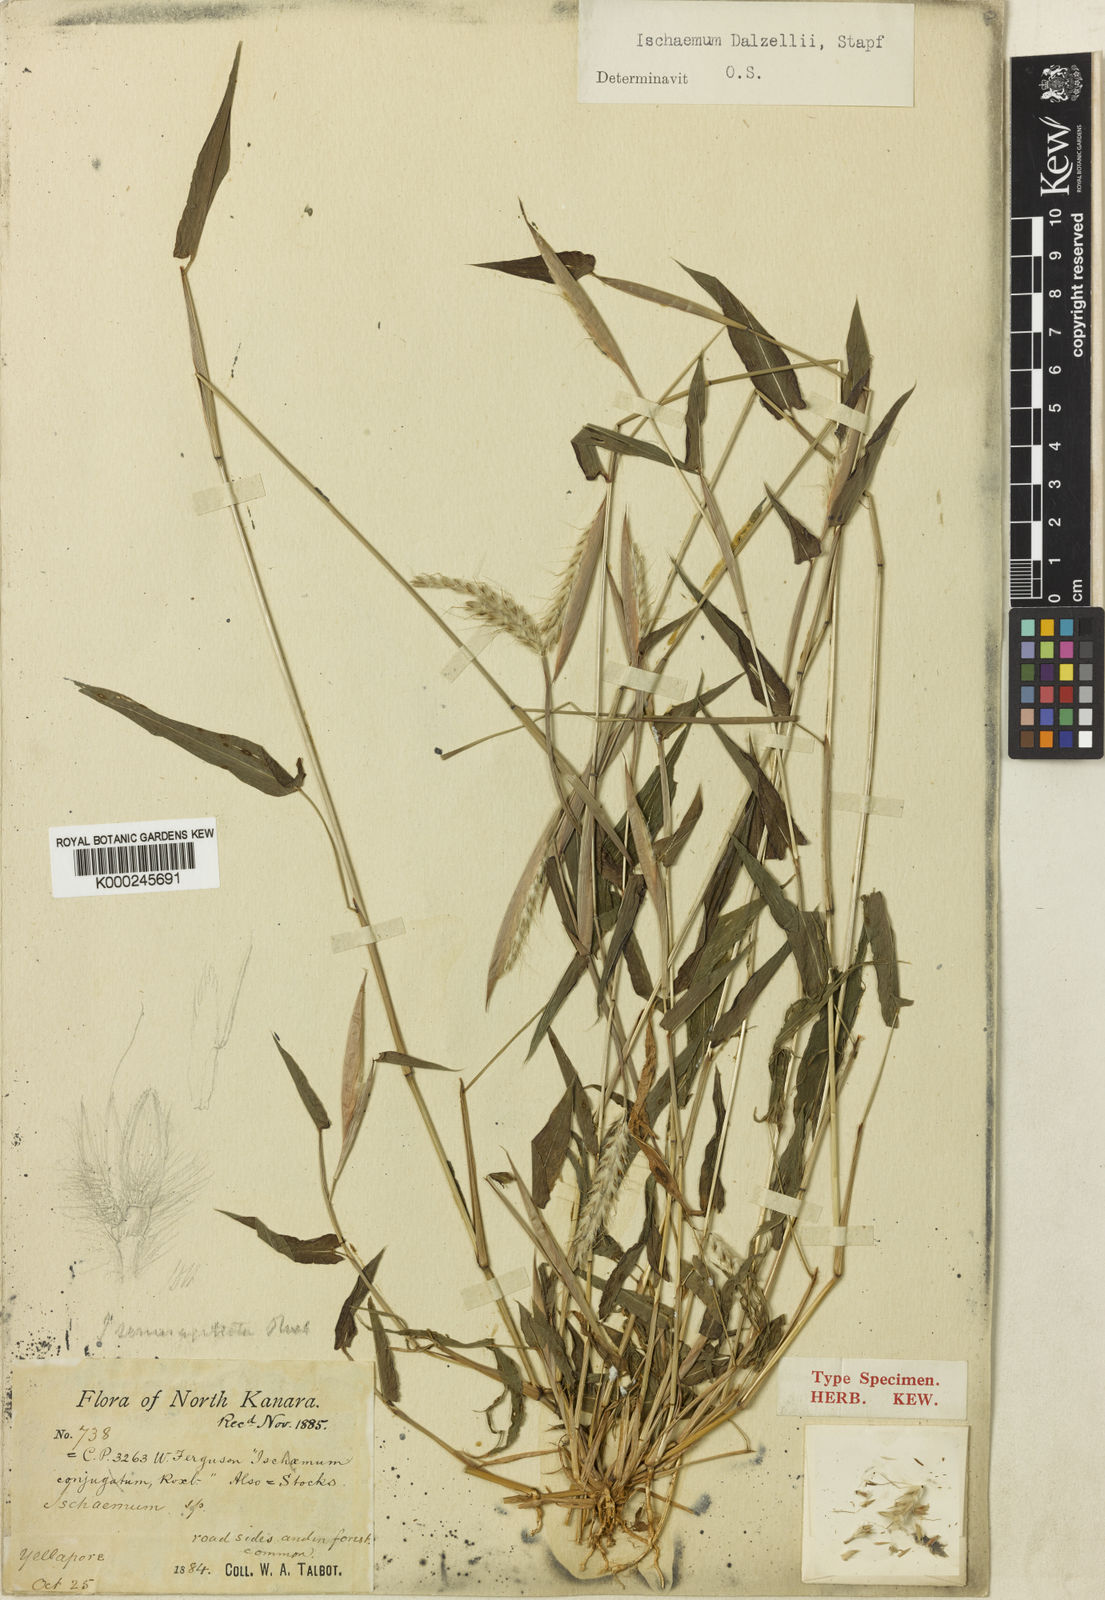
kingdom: Plantae
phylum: Tracheophyta
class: Liliopsida
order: Poales
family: Poaceae
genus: Ischaemum
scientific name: Ischaemum dalzellii
